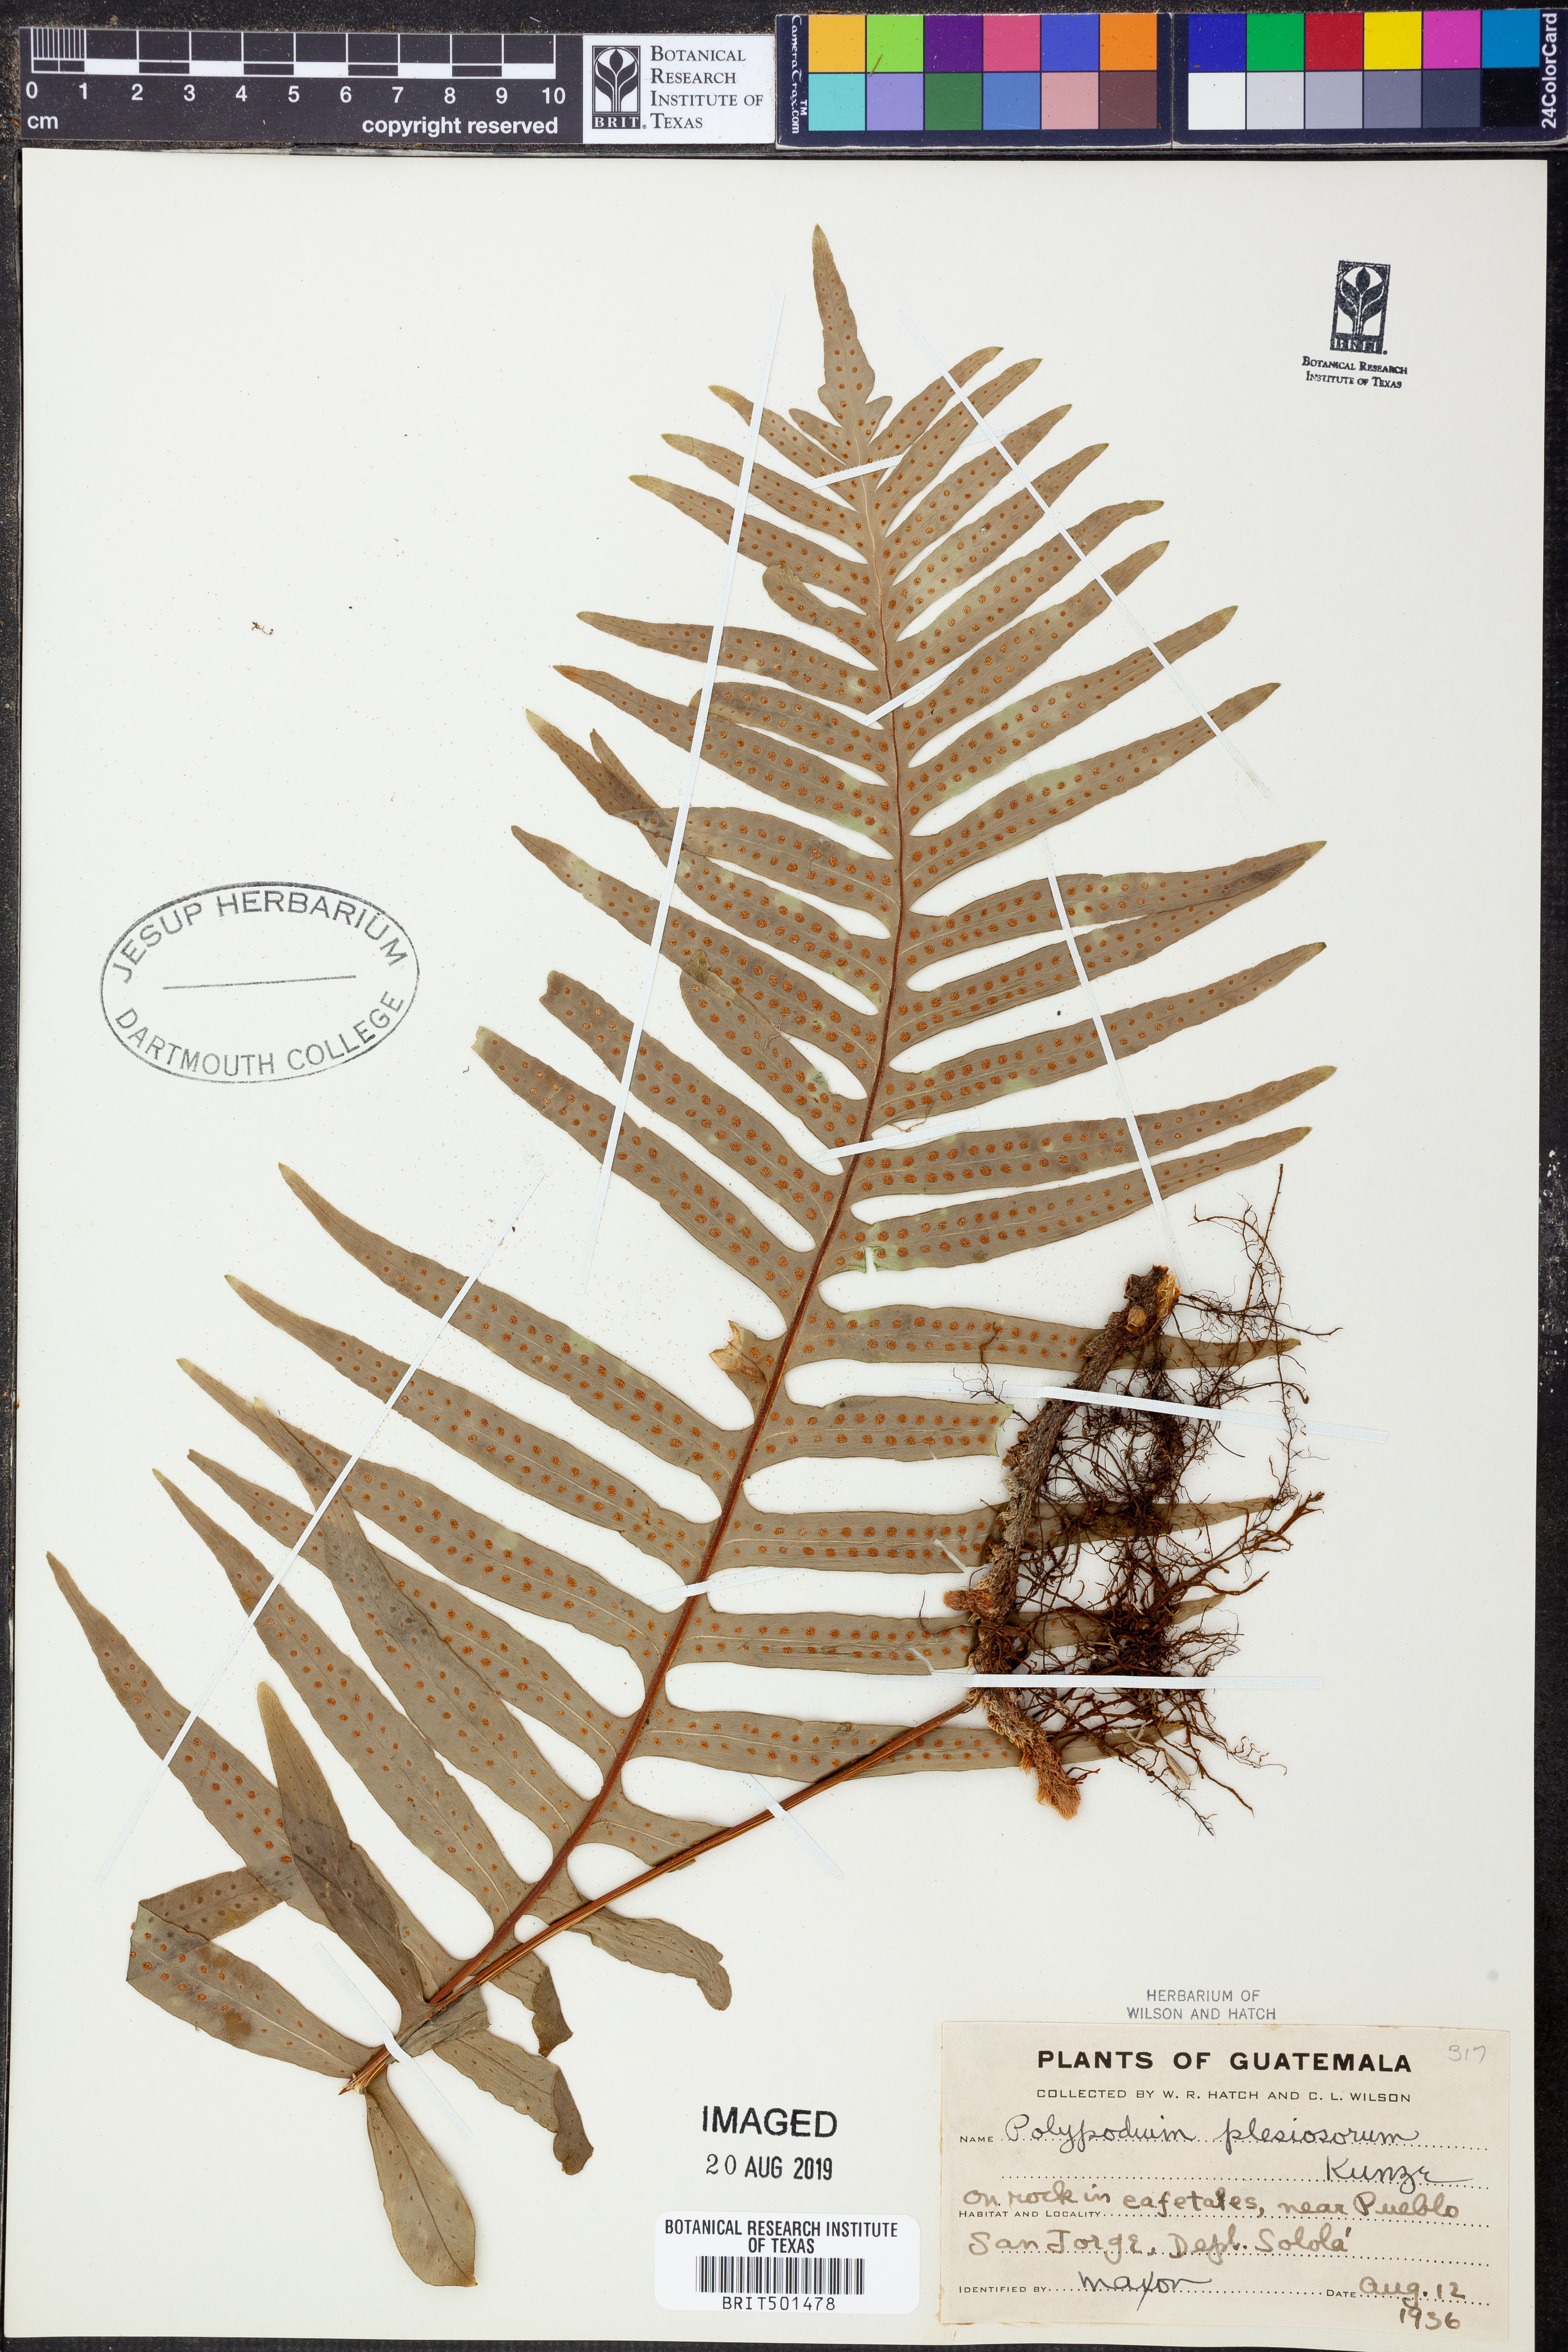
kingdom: Plantae
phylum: Tracheophyta
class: Polypodiopsida
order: Polypodiales
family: Polypodiaceae
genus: Polypodium
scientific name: Polypodium plesiosorum
